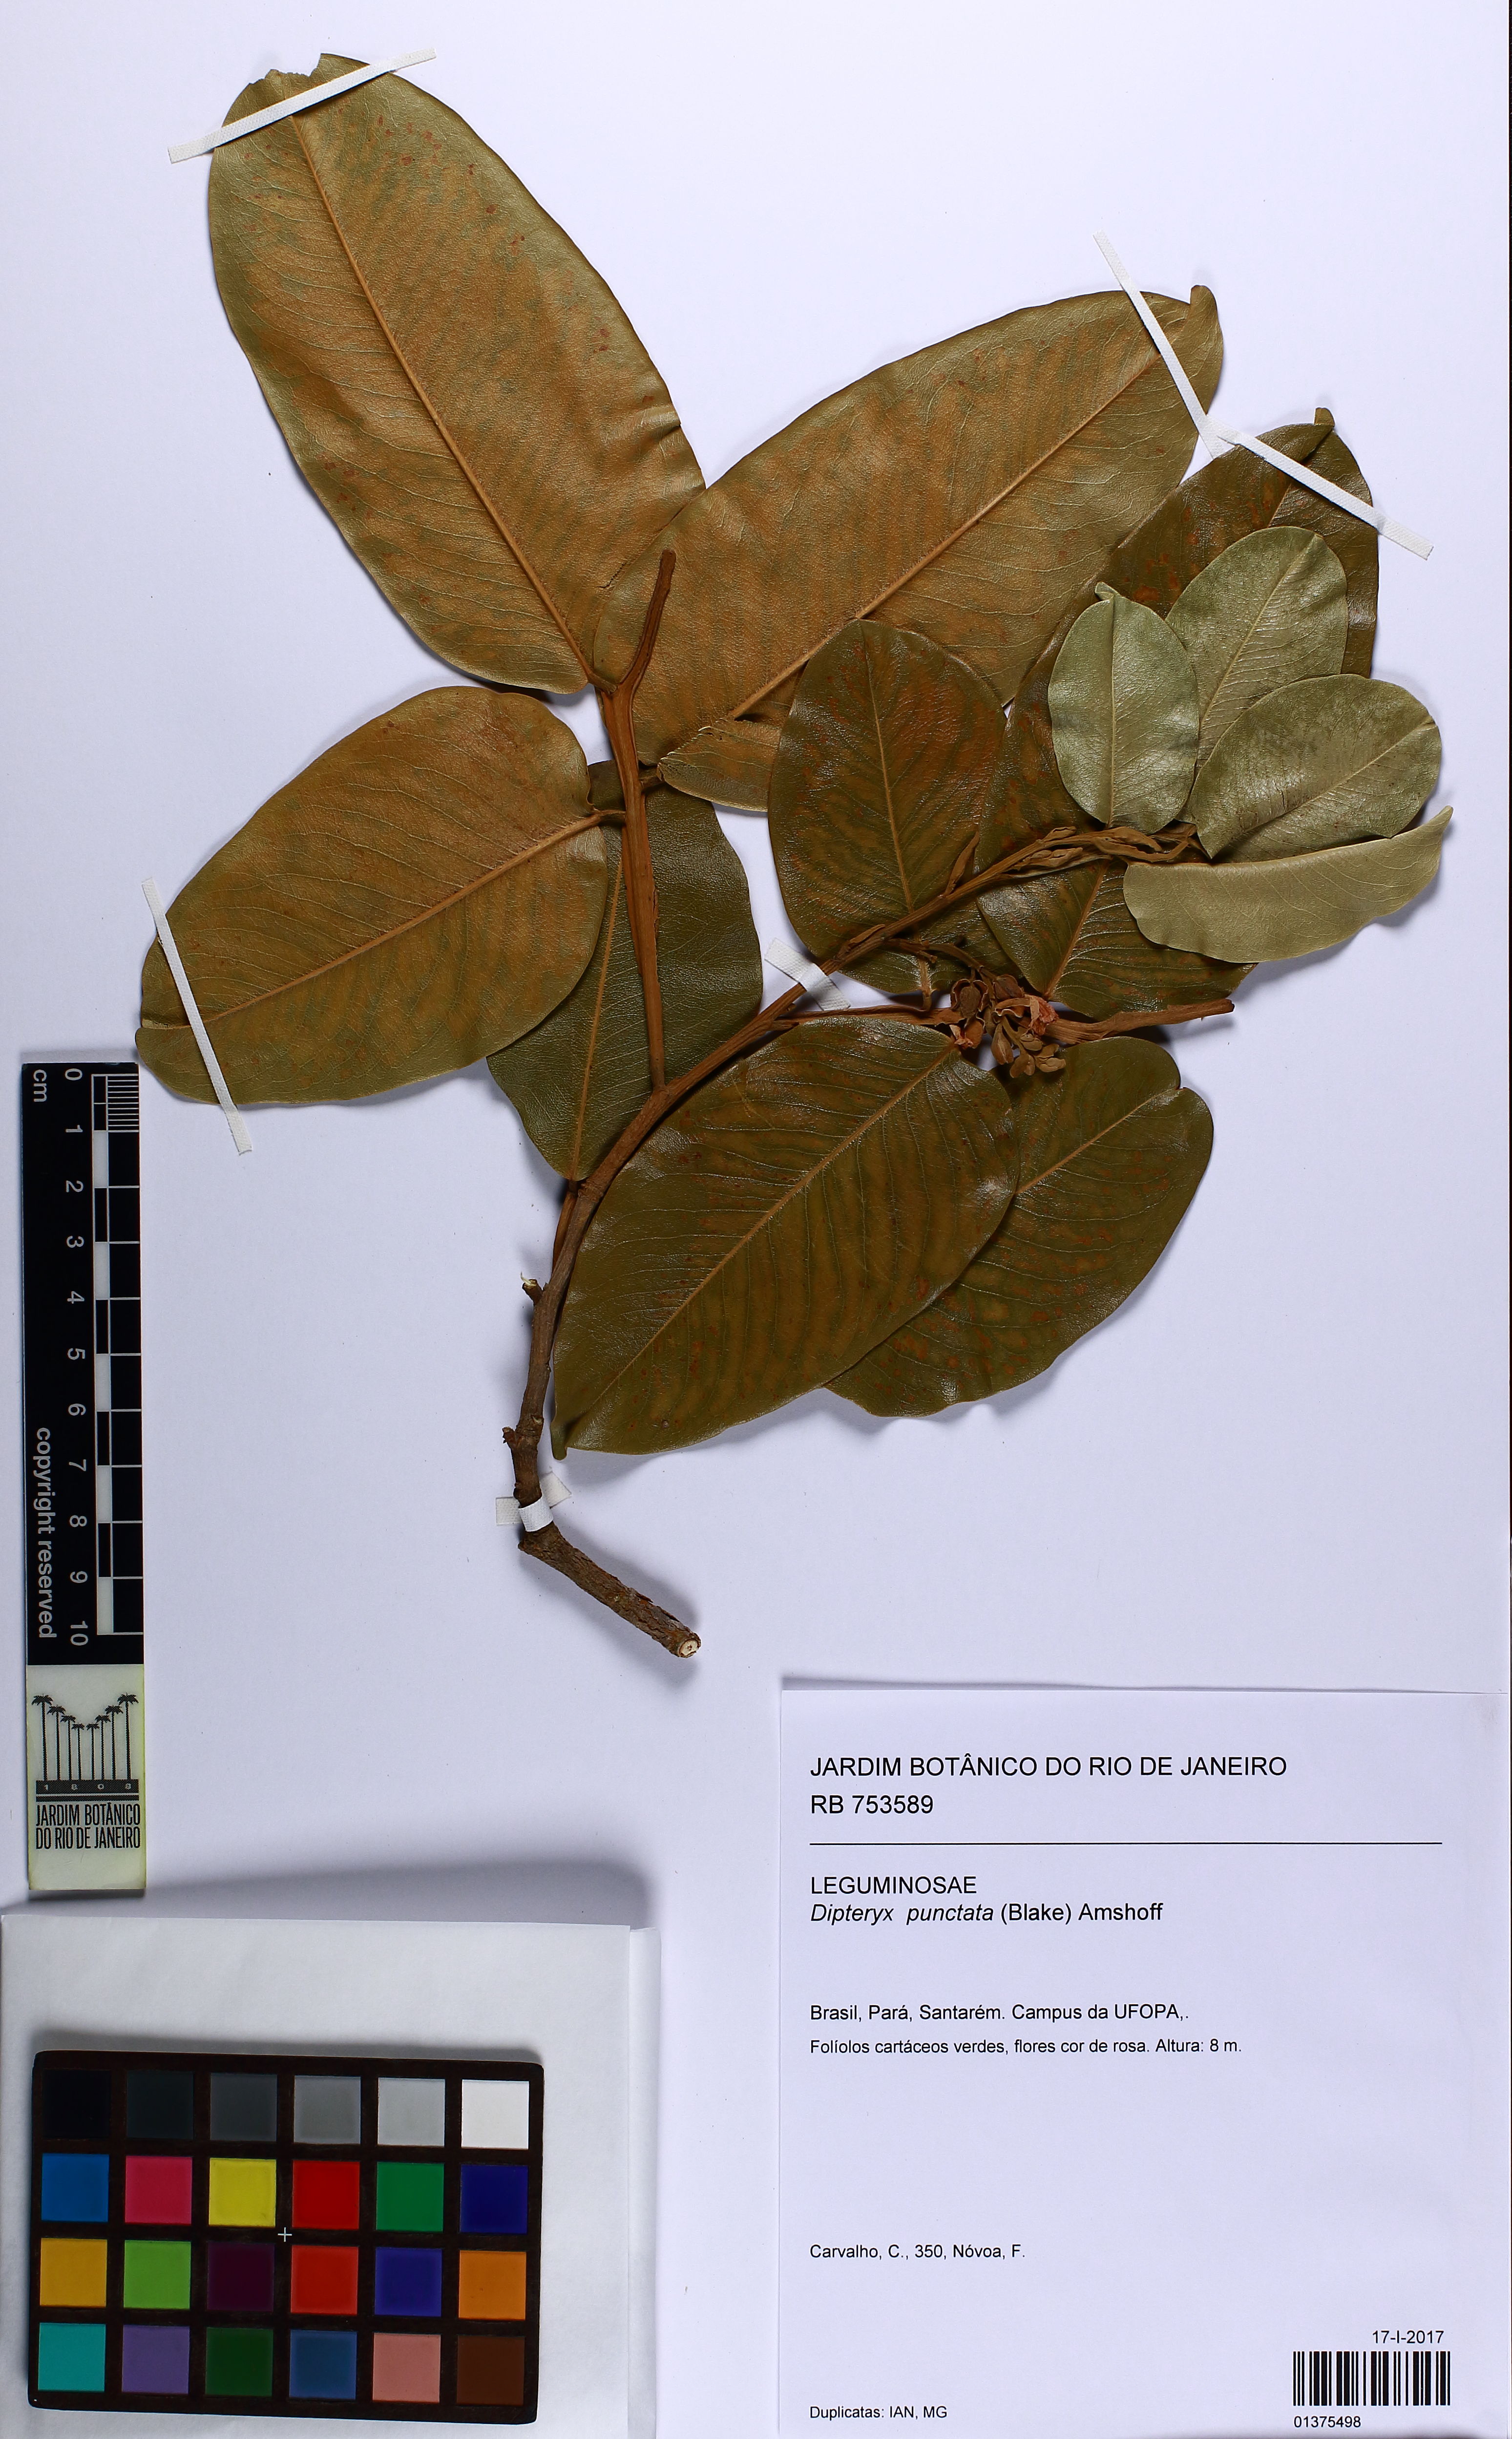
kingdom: Plantae
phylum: Tracheophyta
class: Magnoliopsida
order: Fabales
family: Fabaceae
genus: Dipteryx
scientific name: Dipteryx punctata
